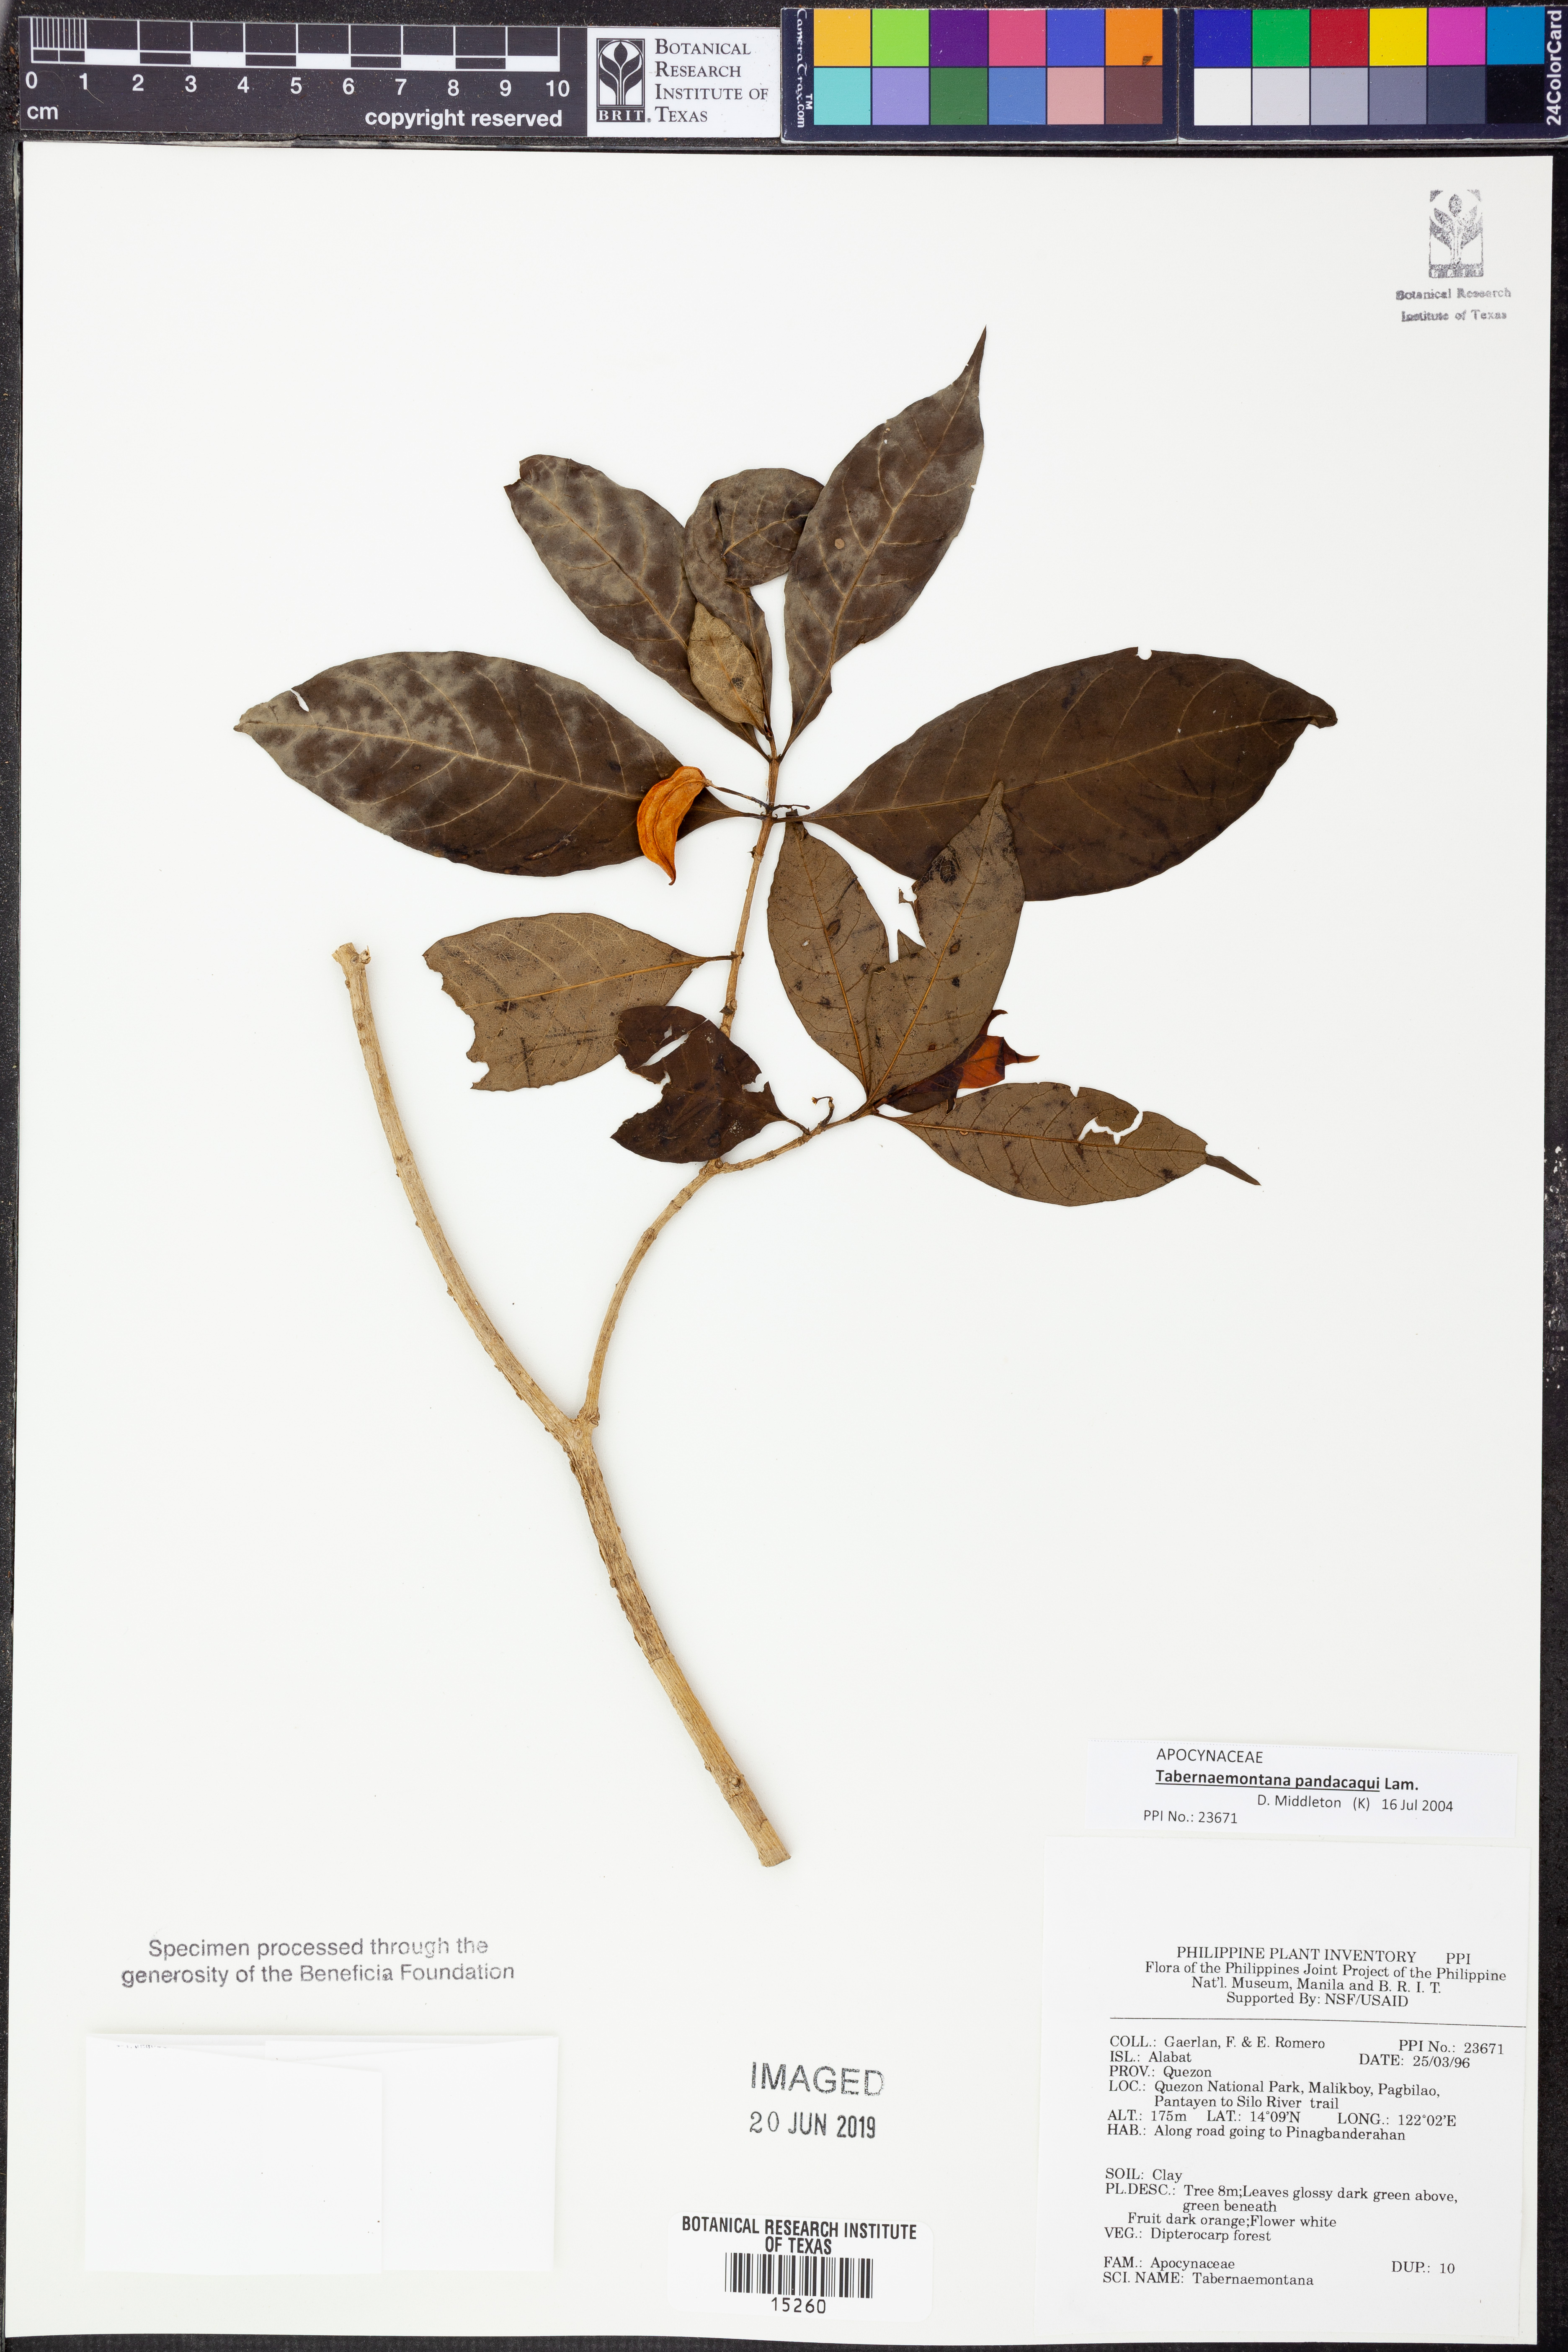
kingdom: Plantae
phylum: Tracheophyta
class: Magnoliopsida
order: Gentianales
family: Apocynaceae
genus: Tabernaemontana
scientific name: Tabernaemontana pandacaqui
